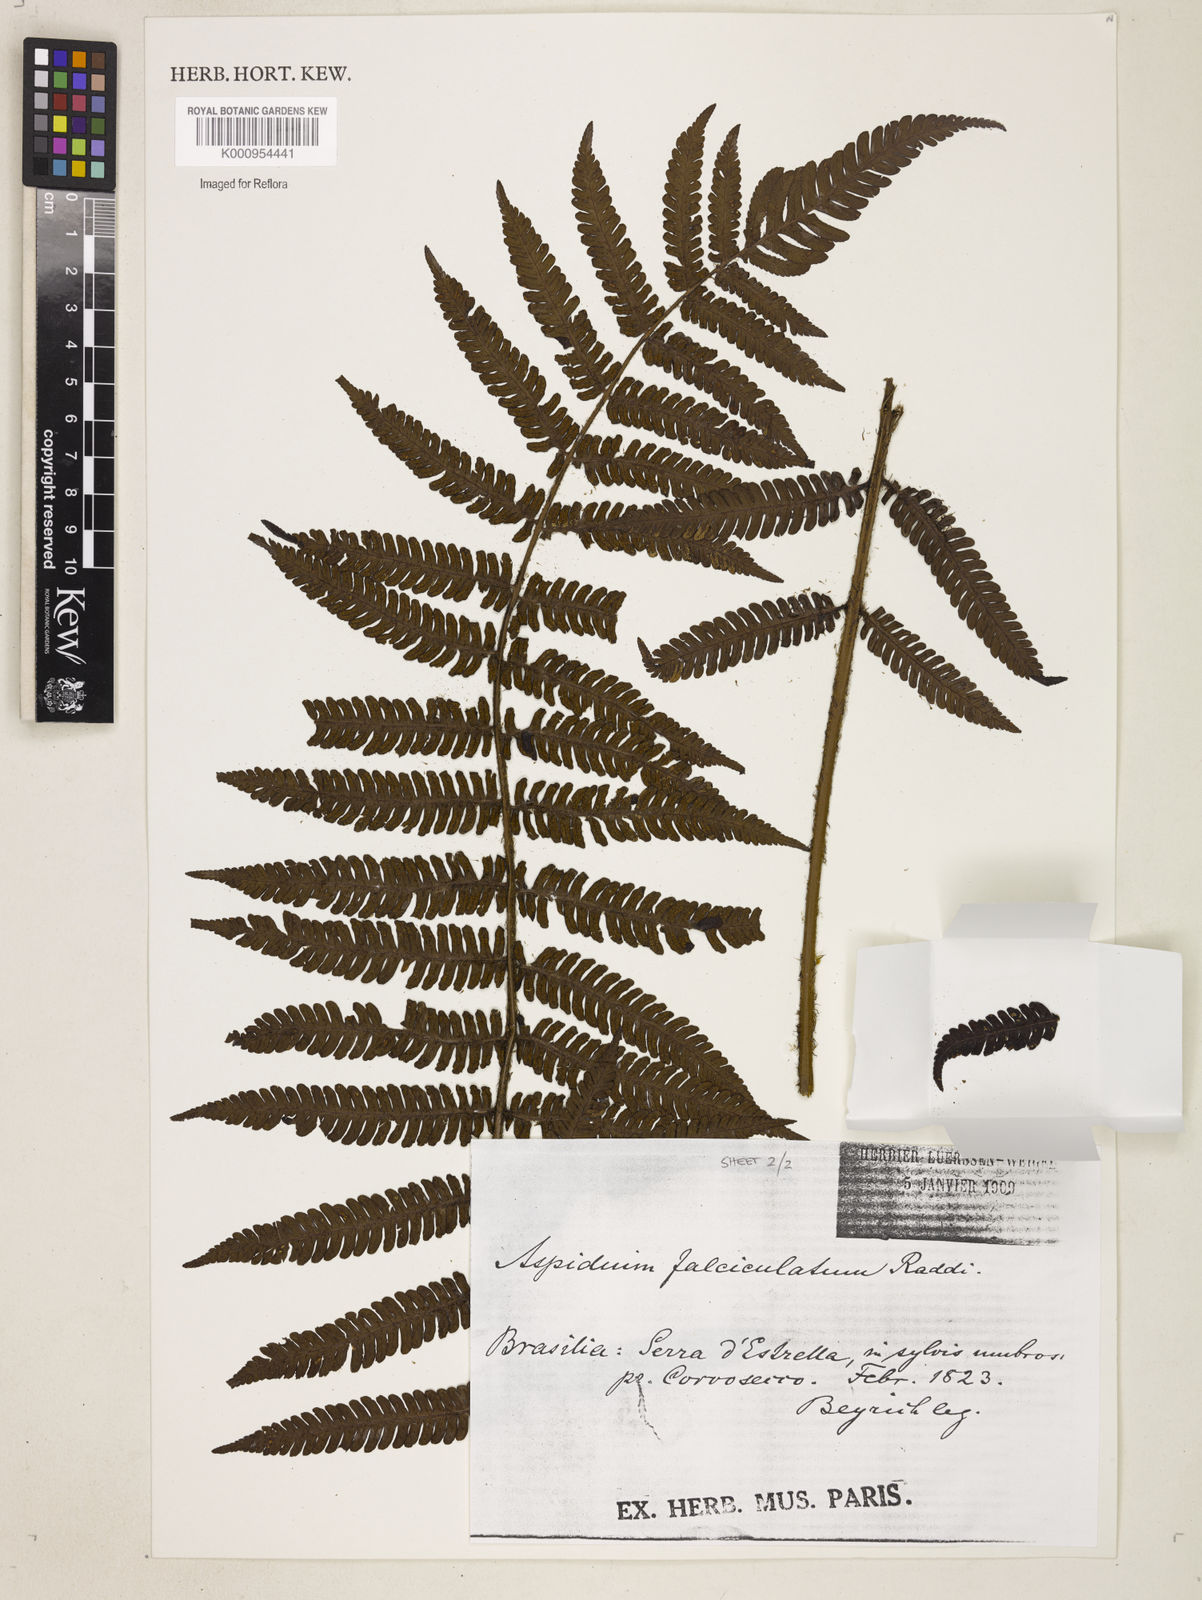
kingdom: Plantae
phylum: Tracheophyta
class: Polypodiopsida
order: Polypodiales
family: Dryopteridaceae
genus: Ctenitis
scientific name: Ctenitis
